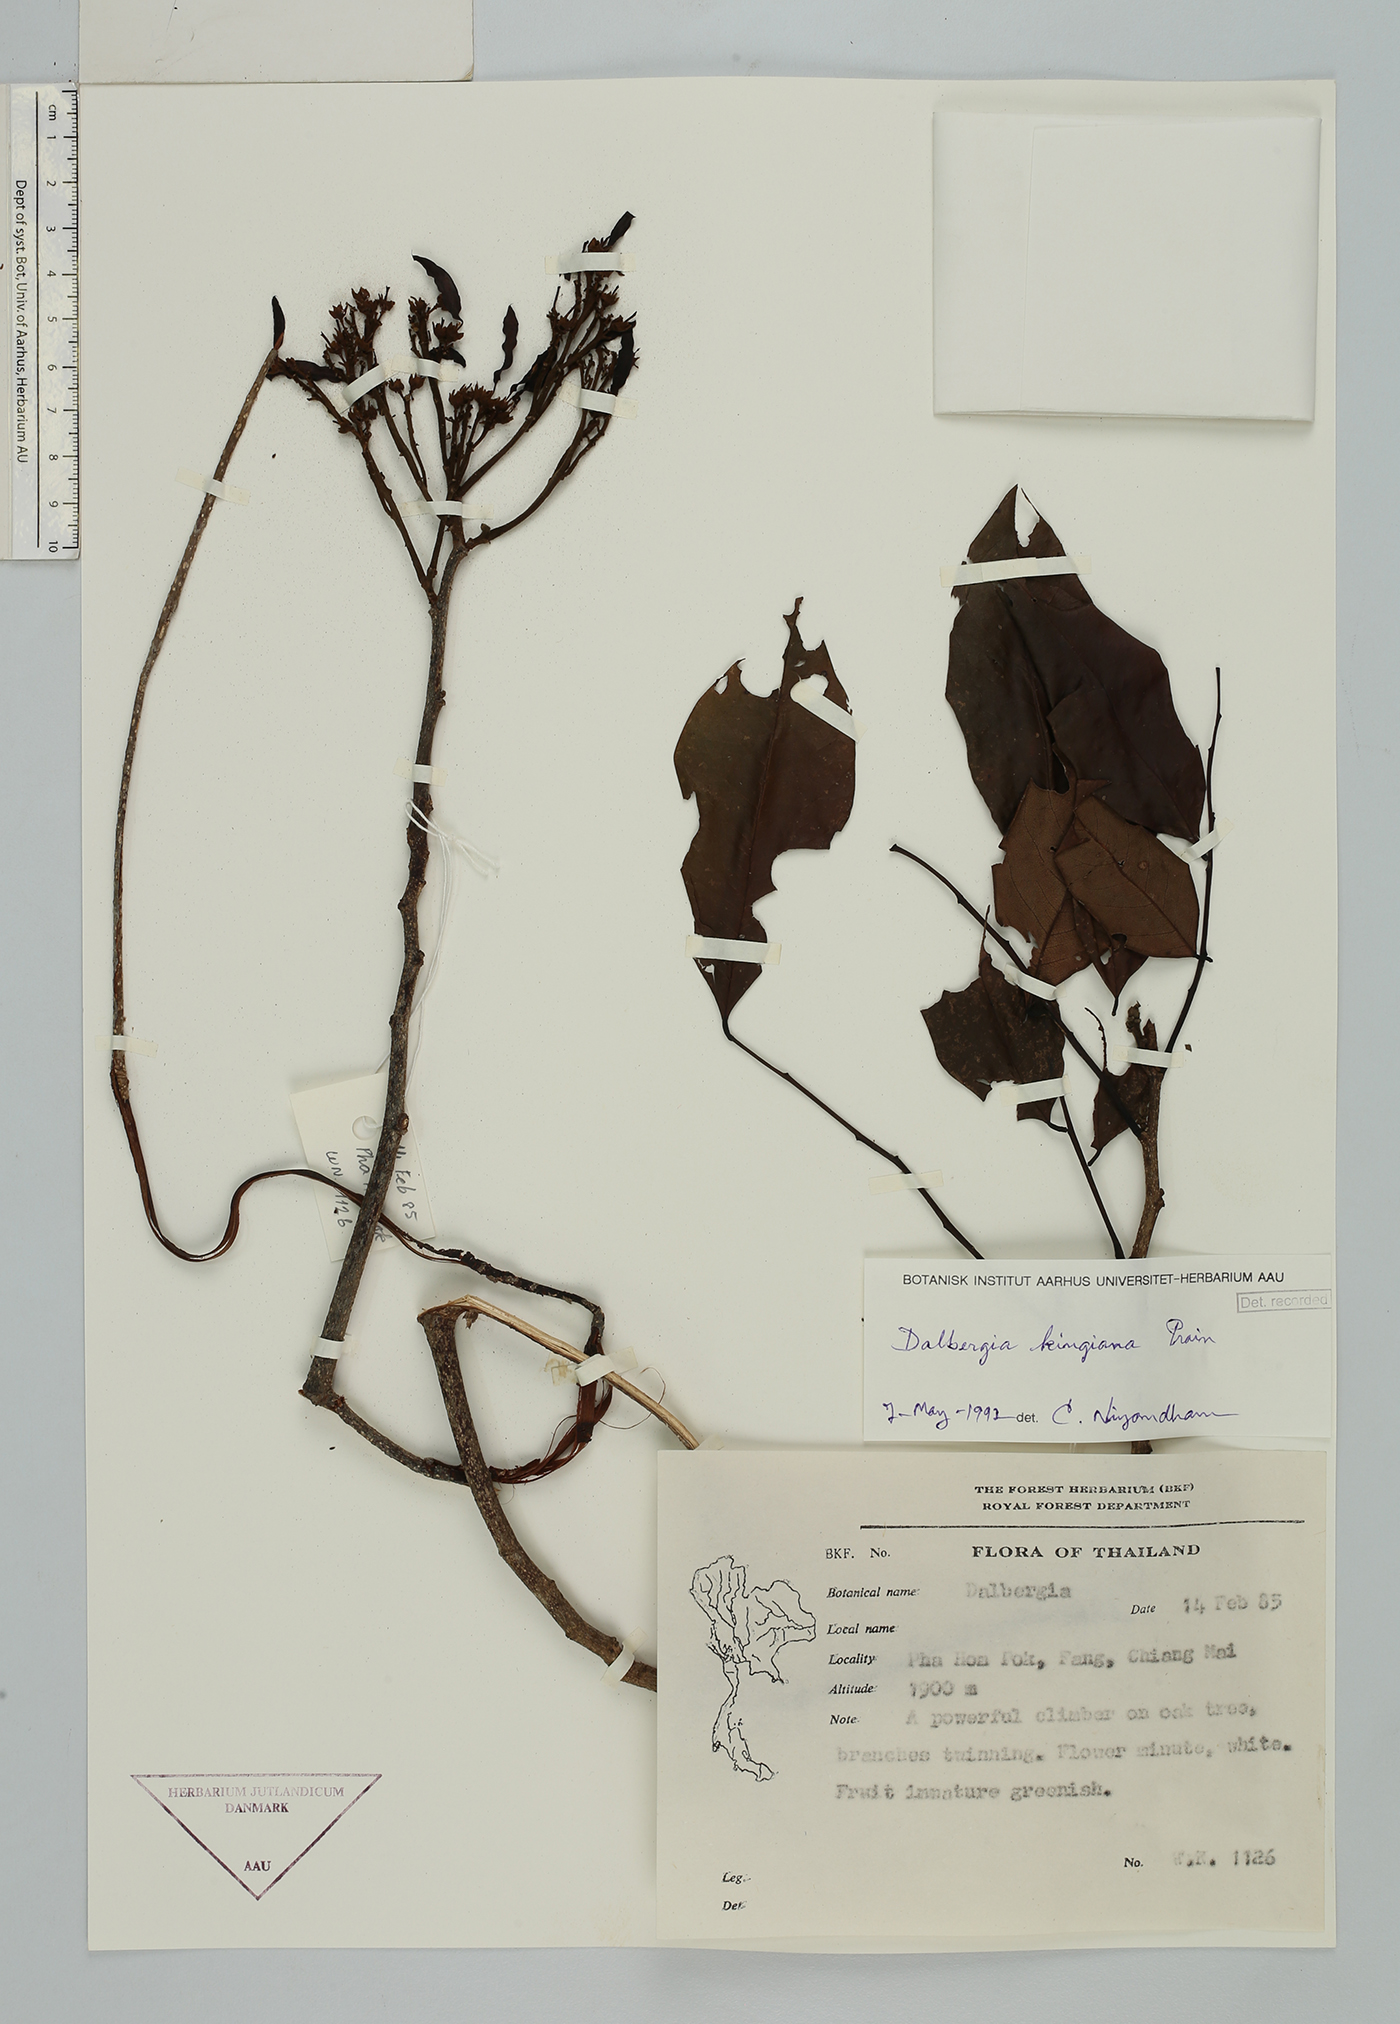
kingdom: Plantae
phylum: Tracheophyta
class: Magnoliopsida
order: Fabales
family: Fabaceae
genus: Dalbergia
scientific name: Dalbergia kingiana
